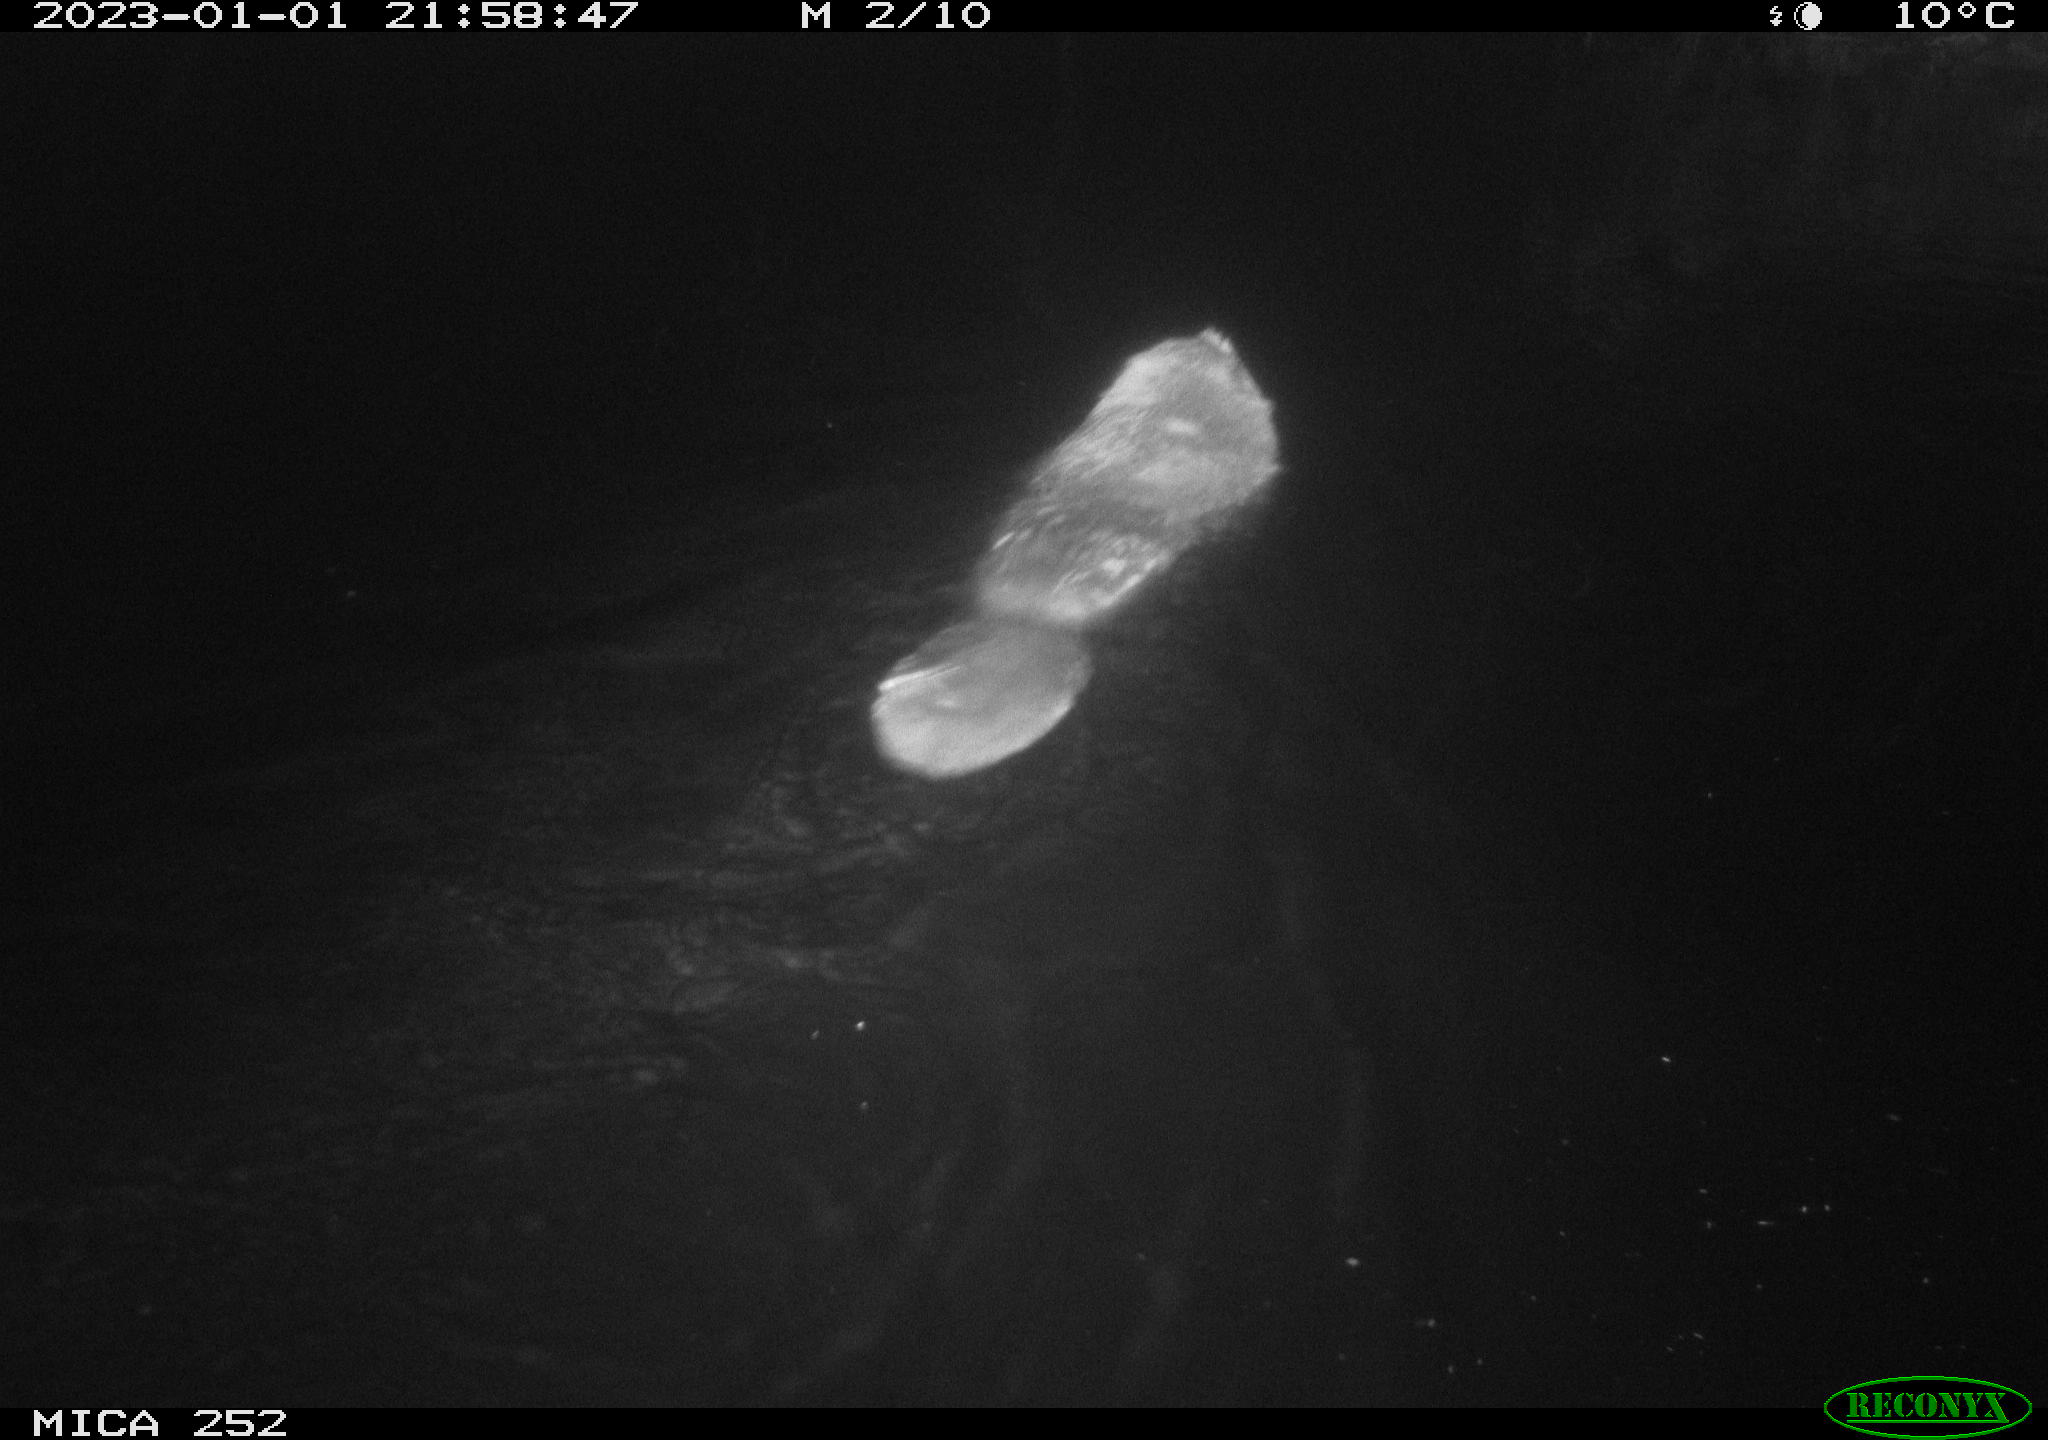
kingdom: Animalia
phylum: Chordata
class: Mammalia
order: Rodentia
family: Castoridae
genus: Castor
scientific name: Castor fiber
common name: Eurasian beaver
